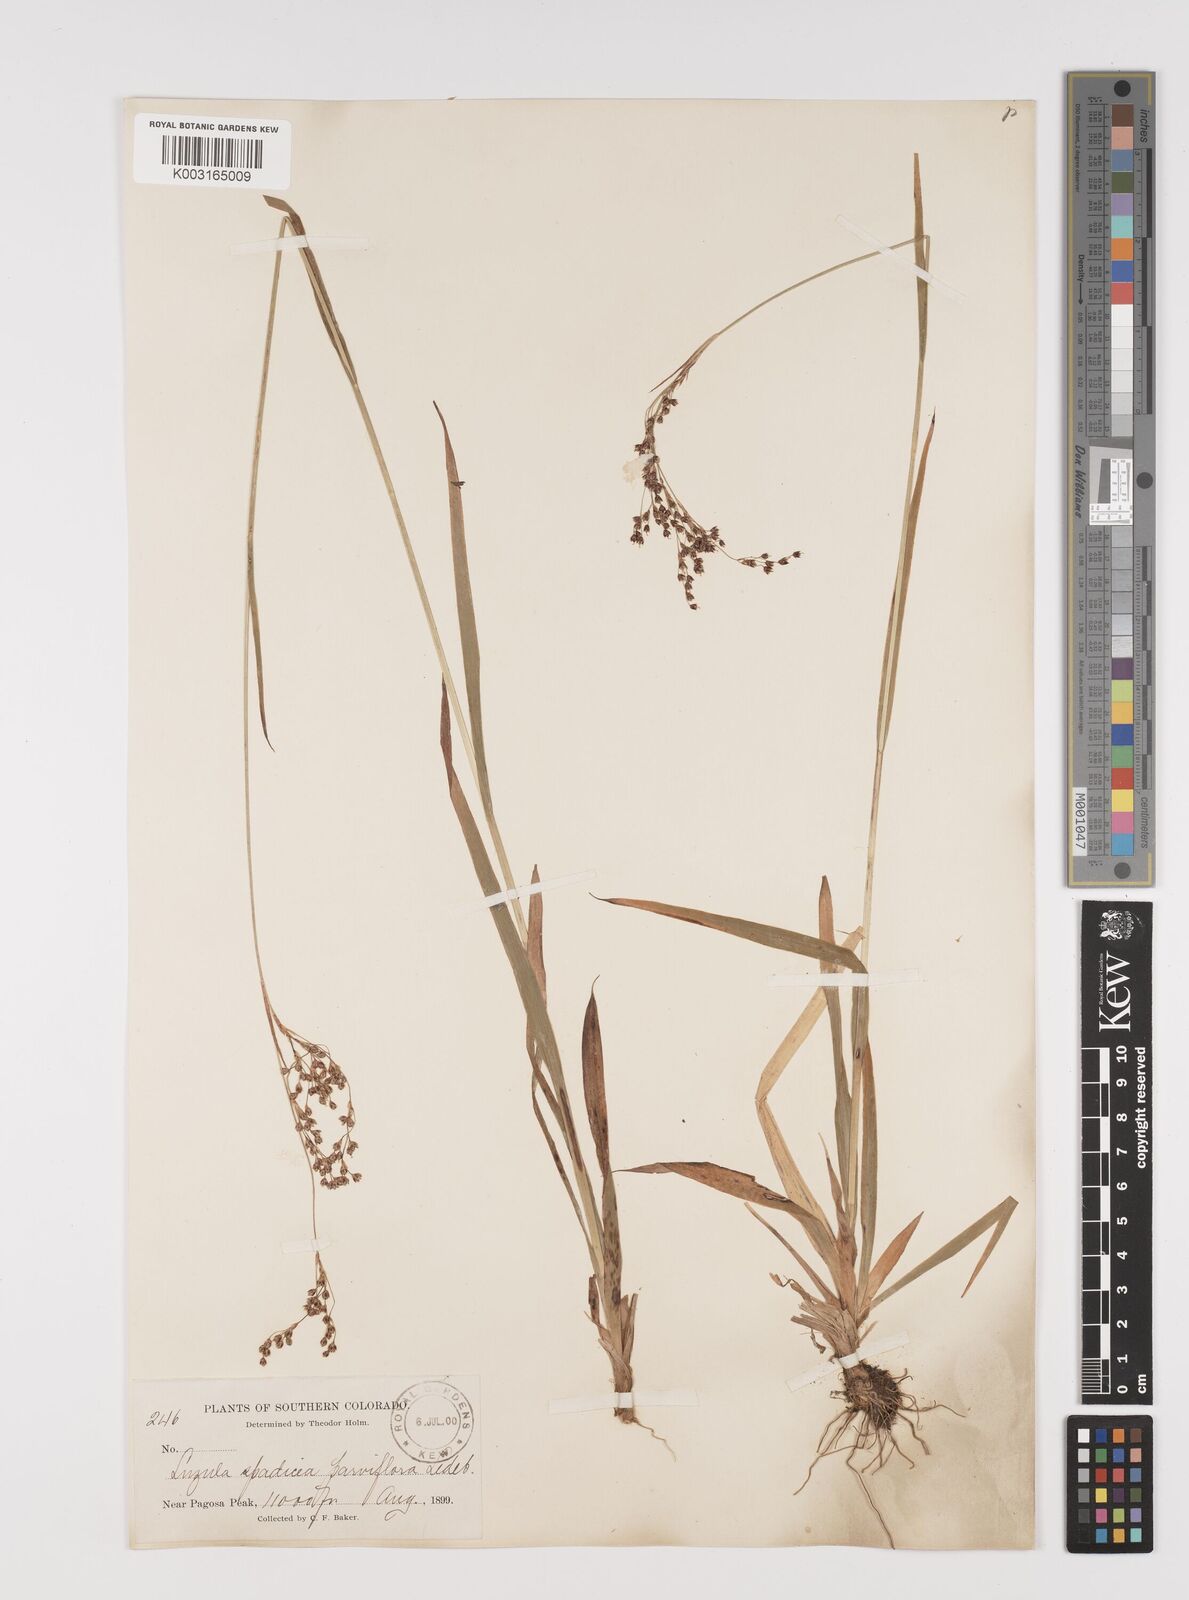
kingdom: Plantae
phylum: Tracheophyta
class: Liliopsida
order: Poales
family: Juncaceae
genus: Luzula
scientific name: Luzula parviflora
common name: Millet woodrush
